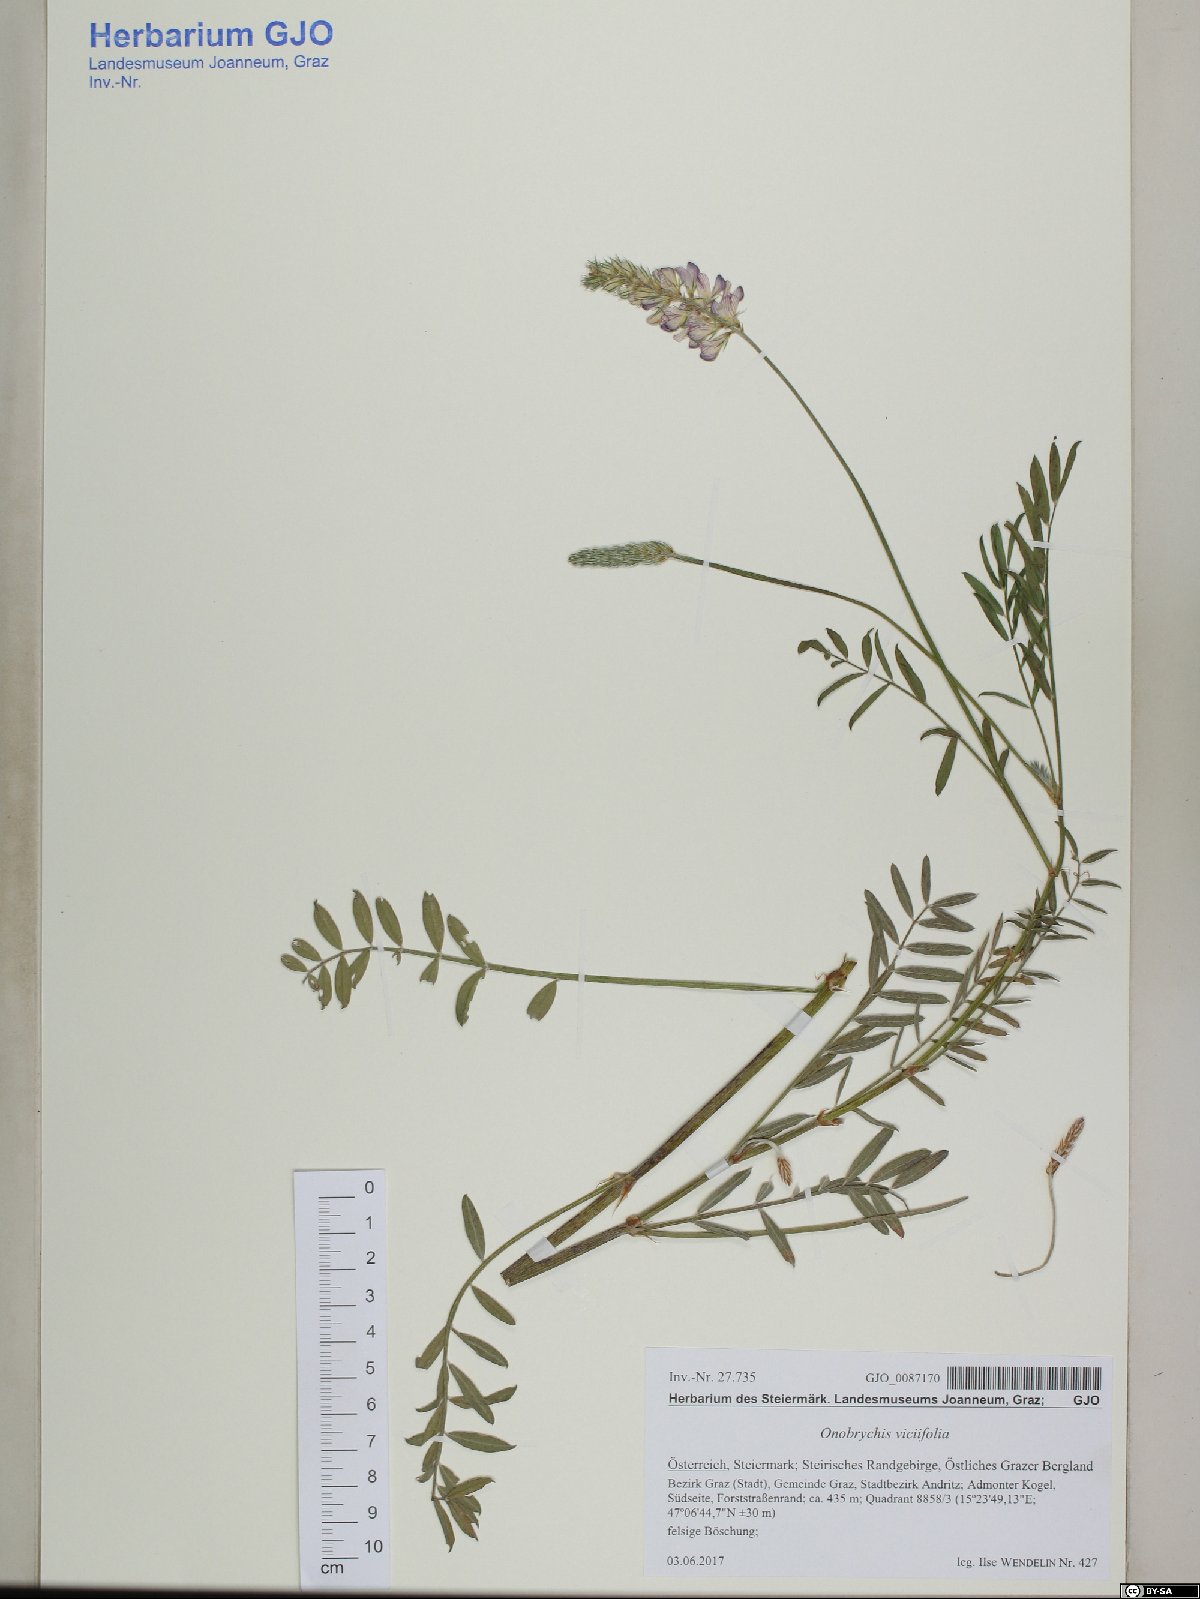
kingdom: Plantae
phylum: Tracheophyta
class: Magnoliopsida
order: Fabales
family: Fabaceae
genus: Onobrychis
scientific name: Onobrychis viciifolia
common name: Sainfoin
